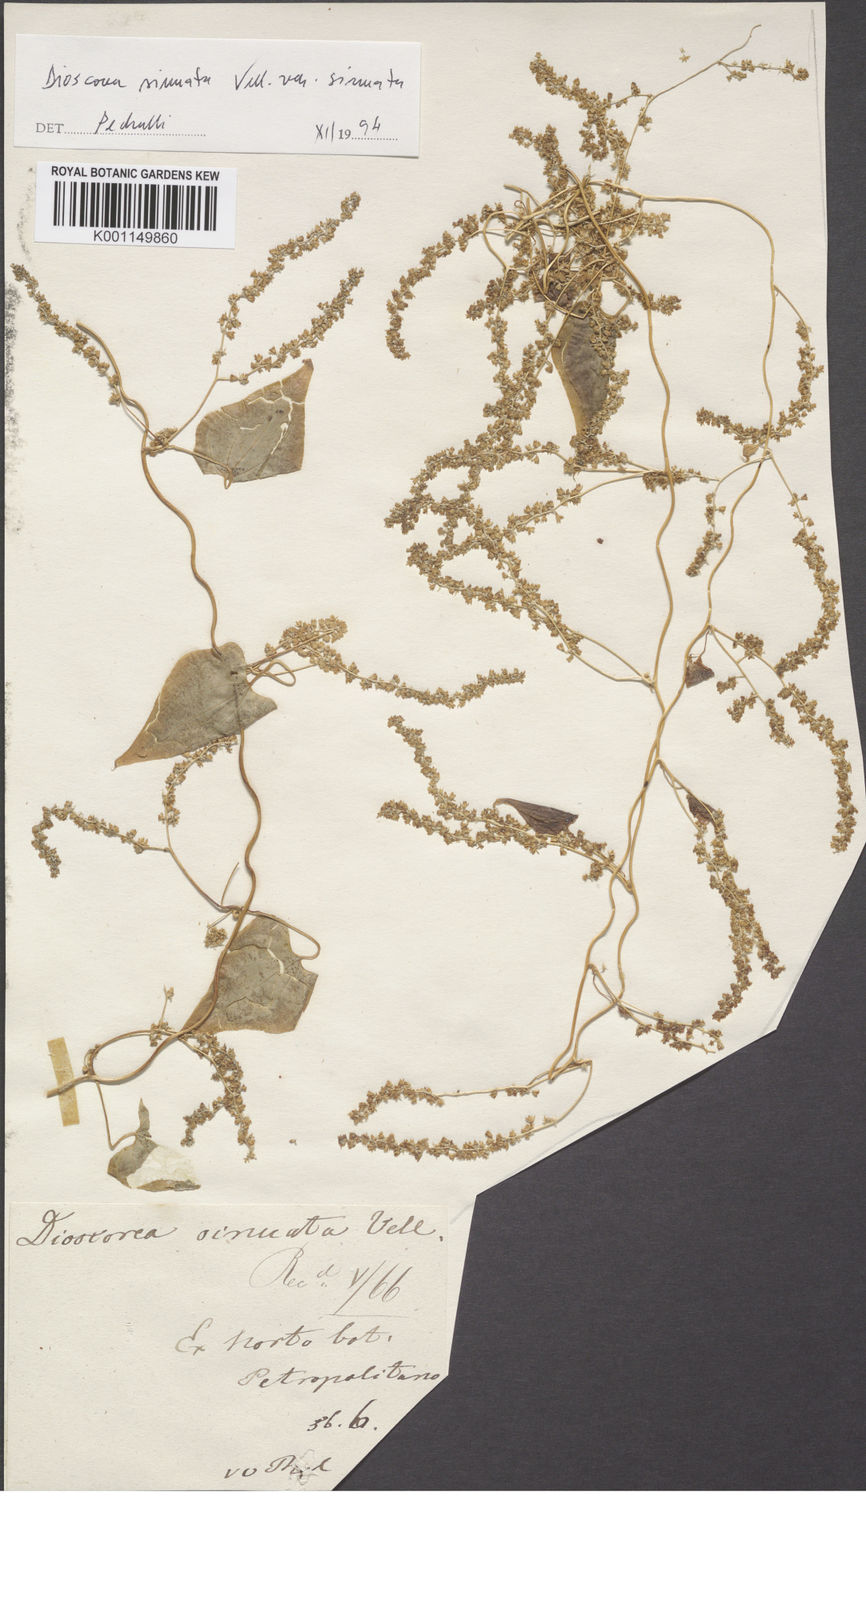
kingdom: Plantae
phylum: Tracheophyta
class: Liliopsida
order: Dioscoreales
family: Dioscoreaceae
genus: Dioscorea
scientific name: Dioscorea sinuata
